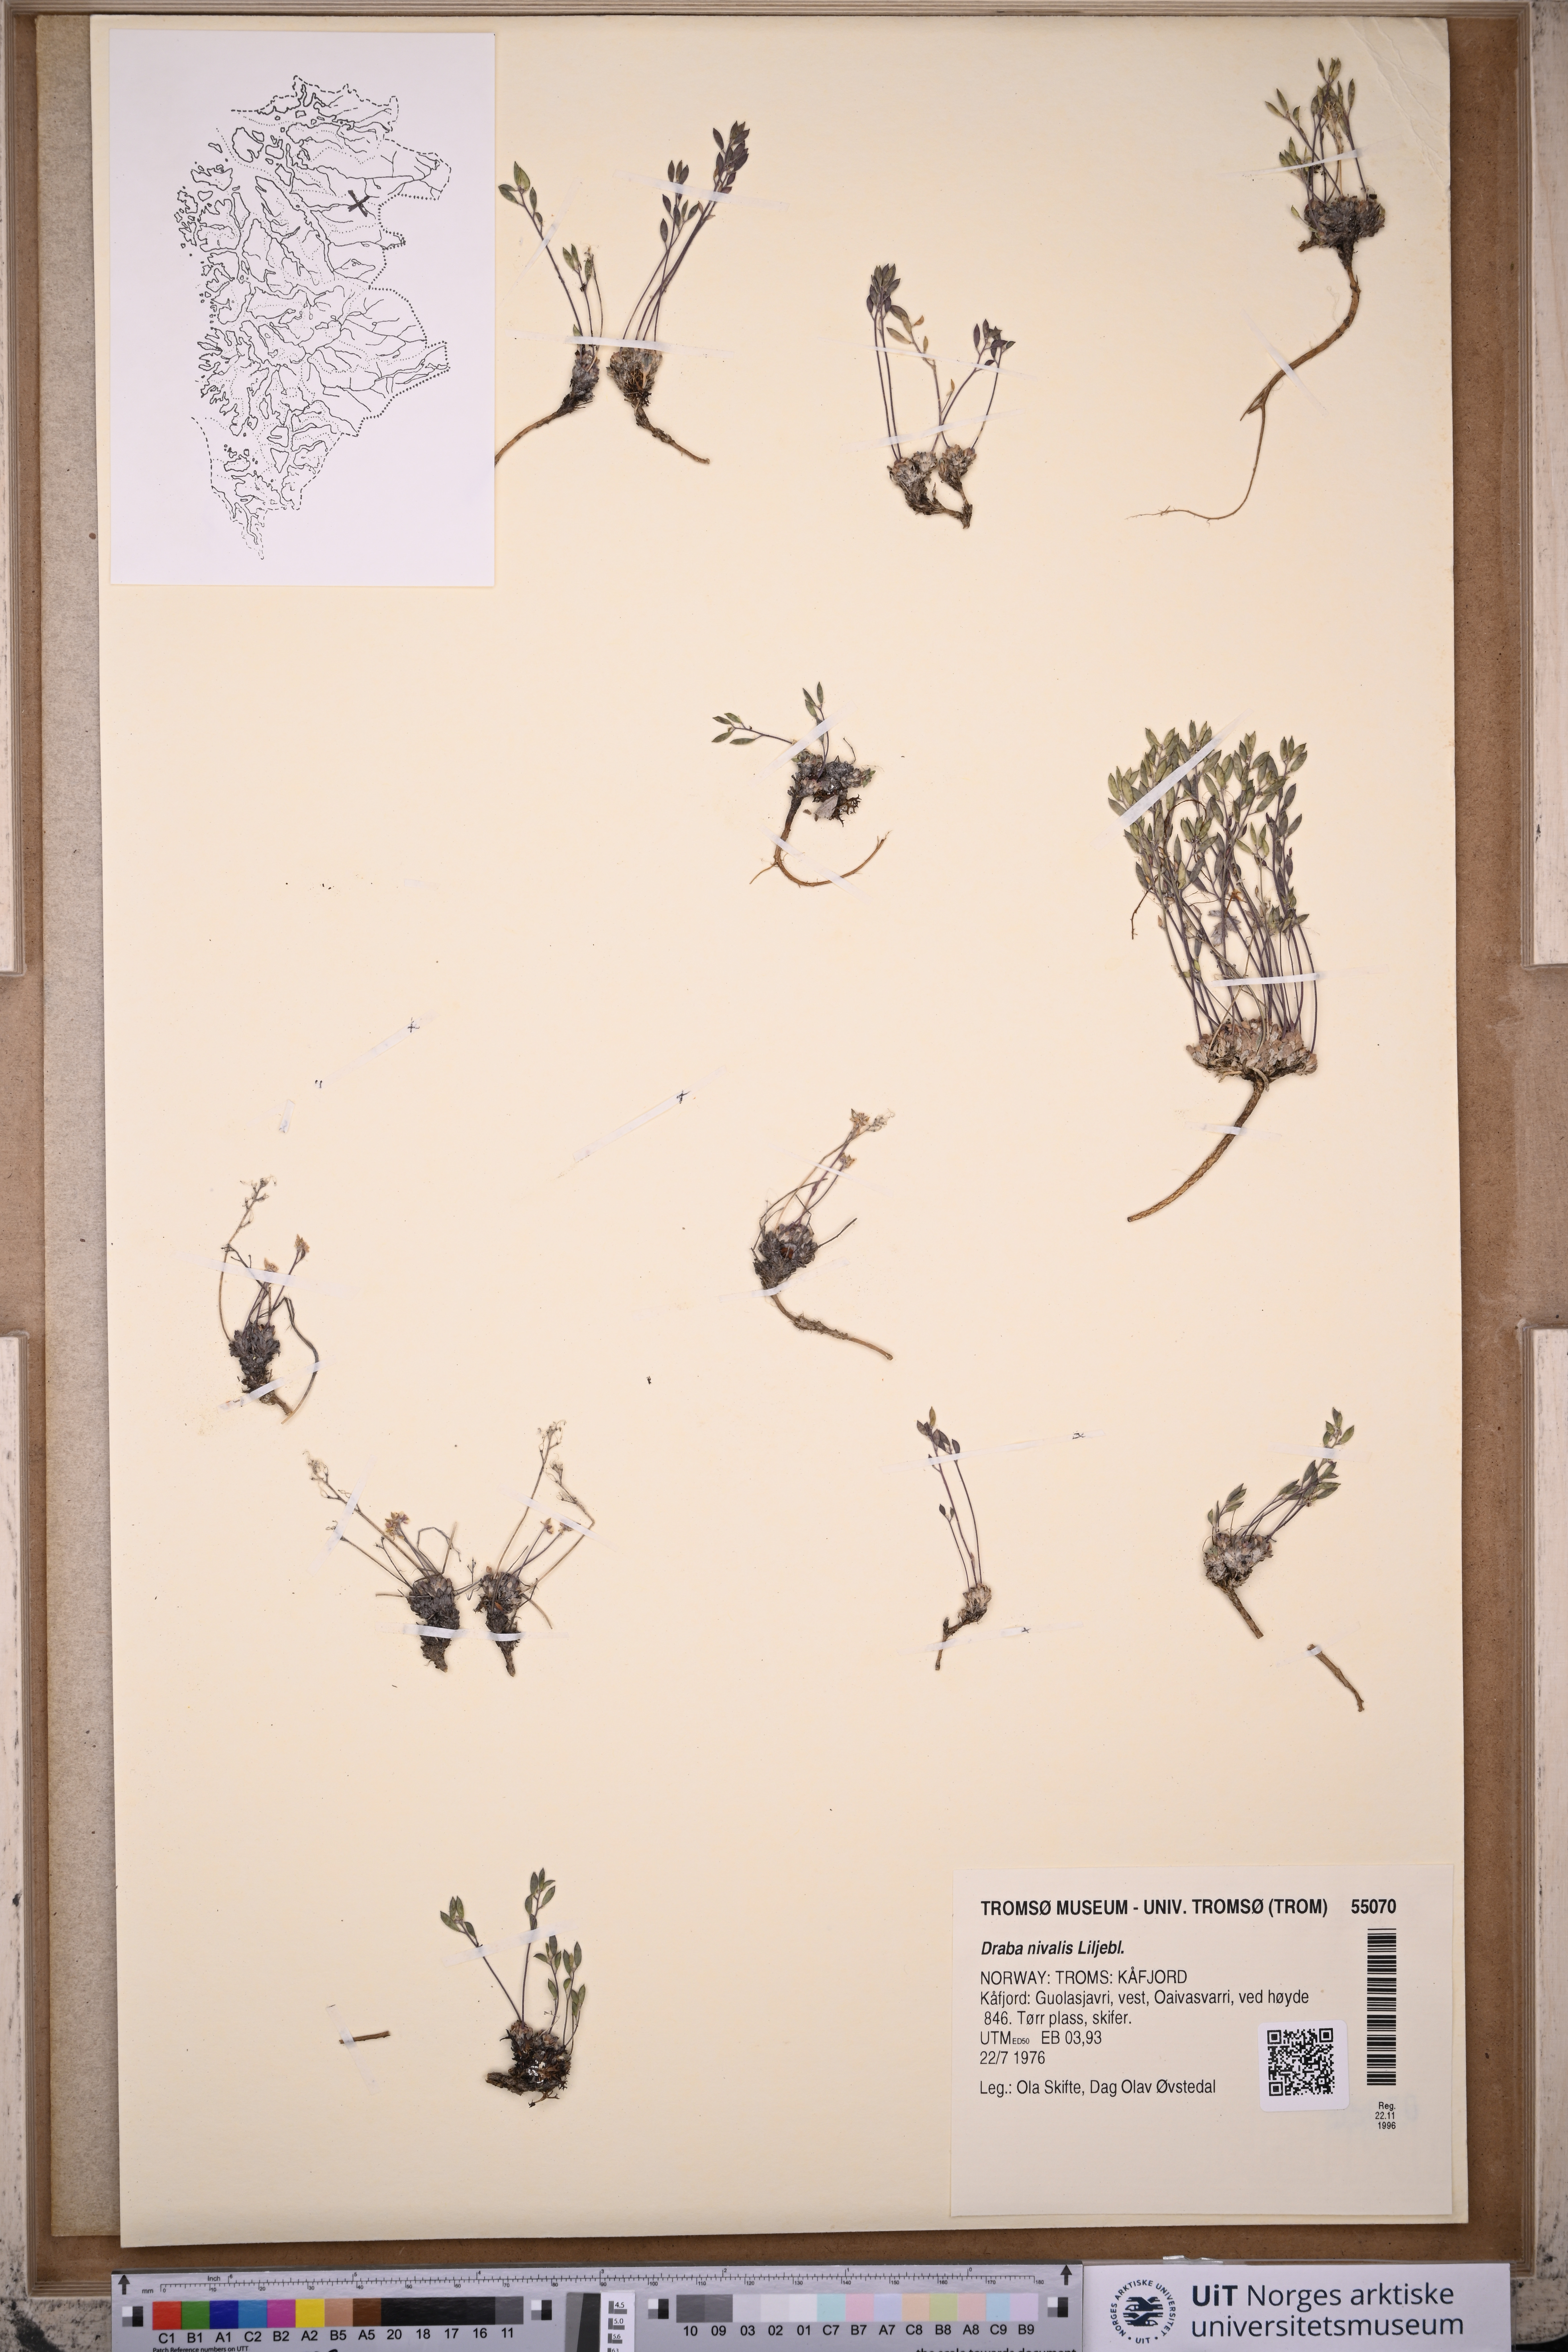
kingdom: Plantae
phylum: Tracheophyta
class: Magnoliopsida
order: Brassicales
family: Brassicaceae
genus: Draba
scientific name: Draba nivalis
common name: Snow draba
